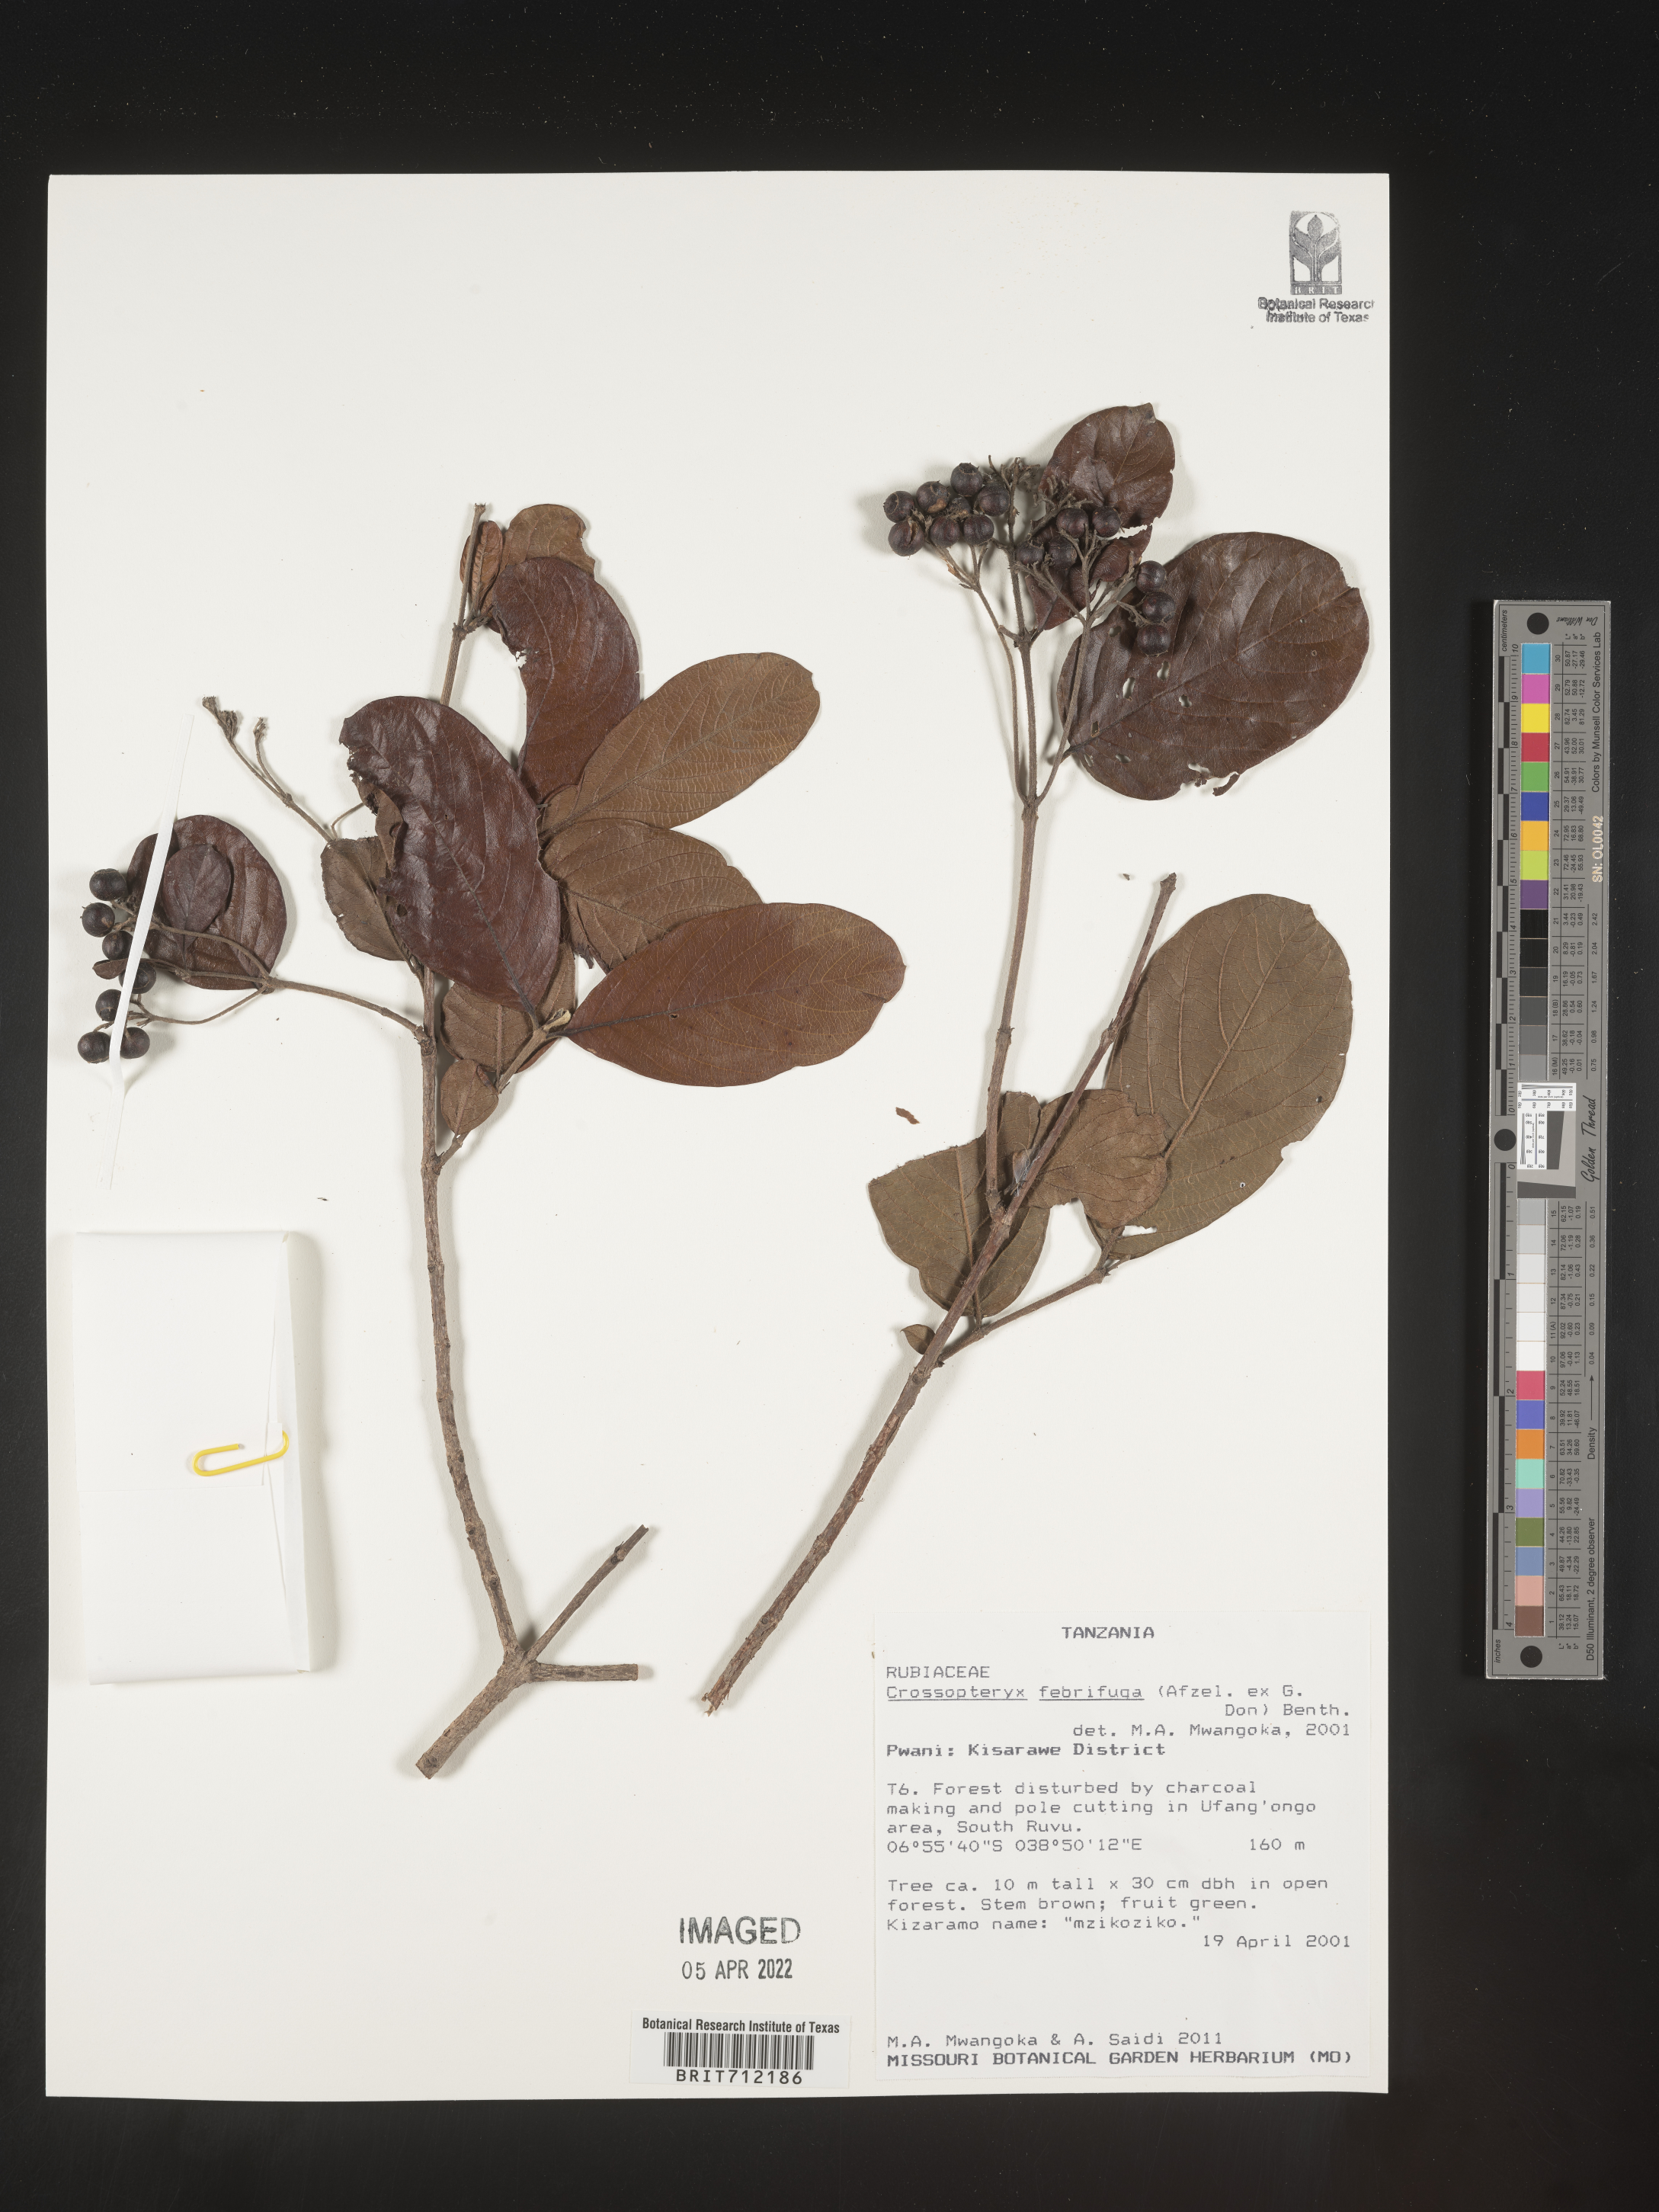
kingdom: Plantae
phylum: Tracheophyta
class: Magnoliopsida
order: Gentianales
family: Rubiaceae
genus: Crossopteryx
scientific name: Crossopteryx
